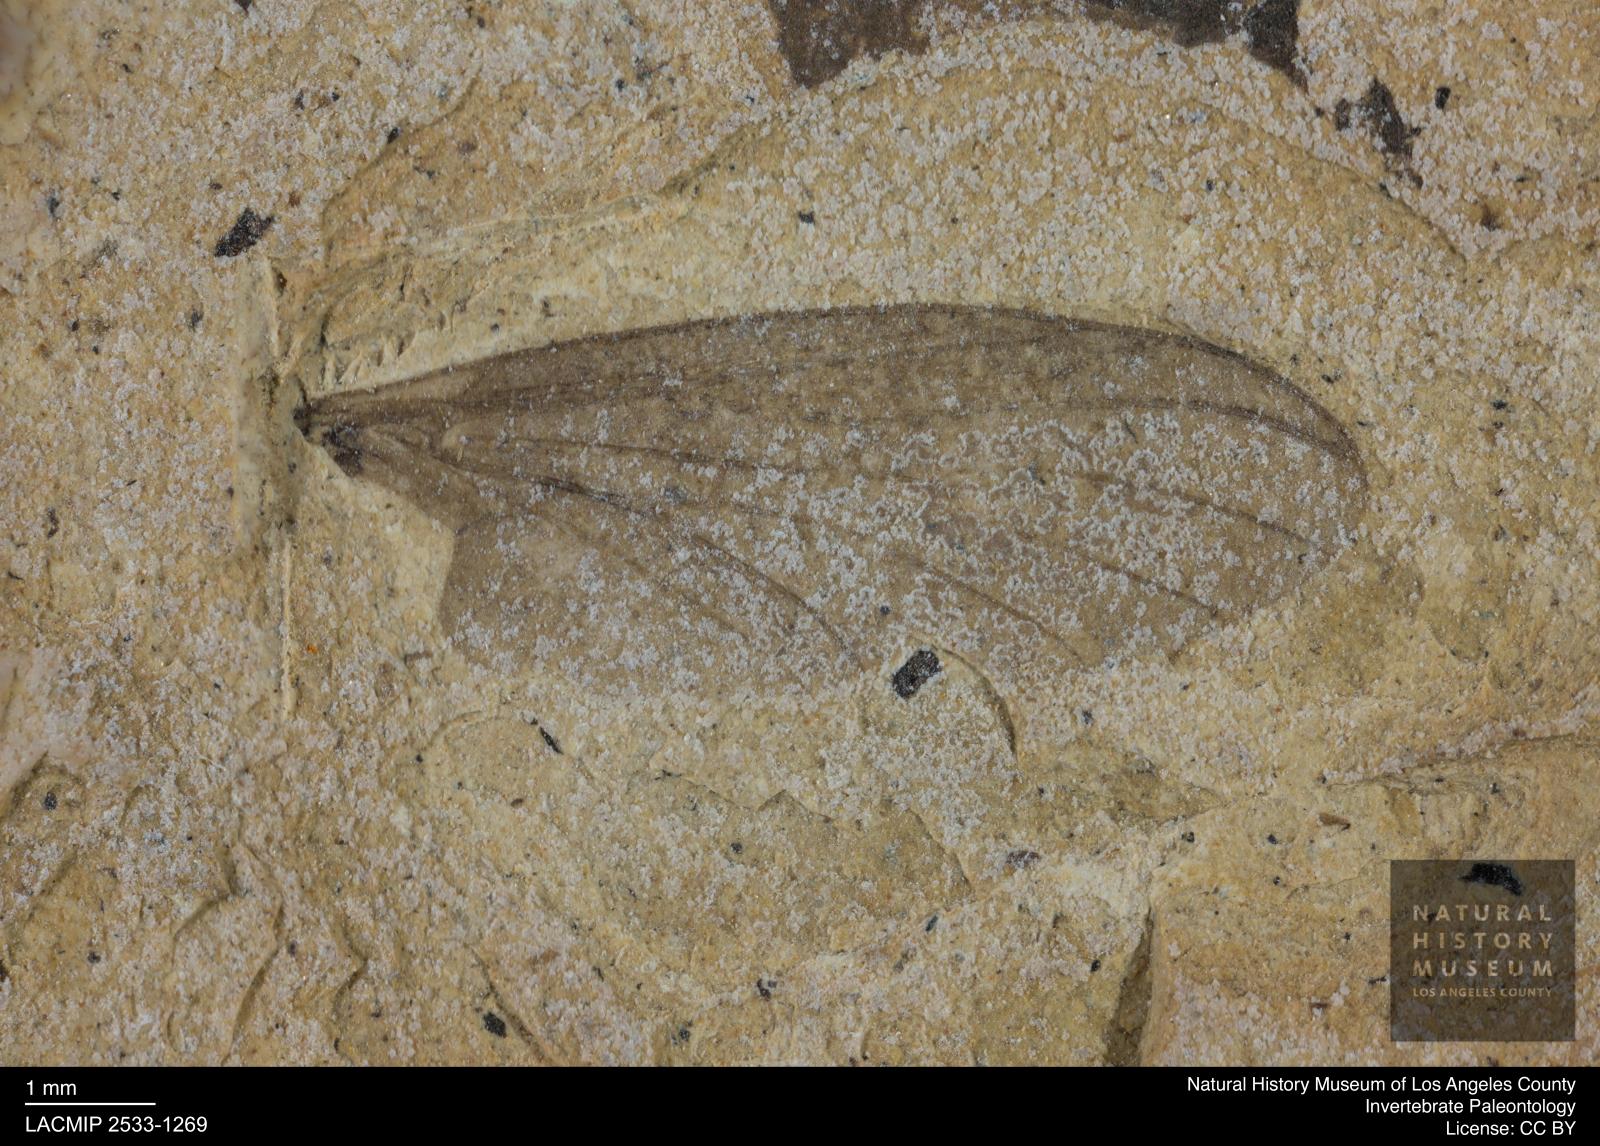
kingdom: Animalia
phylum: Arthropoda
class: Insecta
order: Diptera
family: Bibionidae
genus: Plecia
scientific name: Plecia
